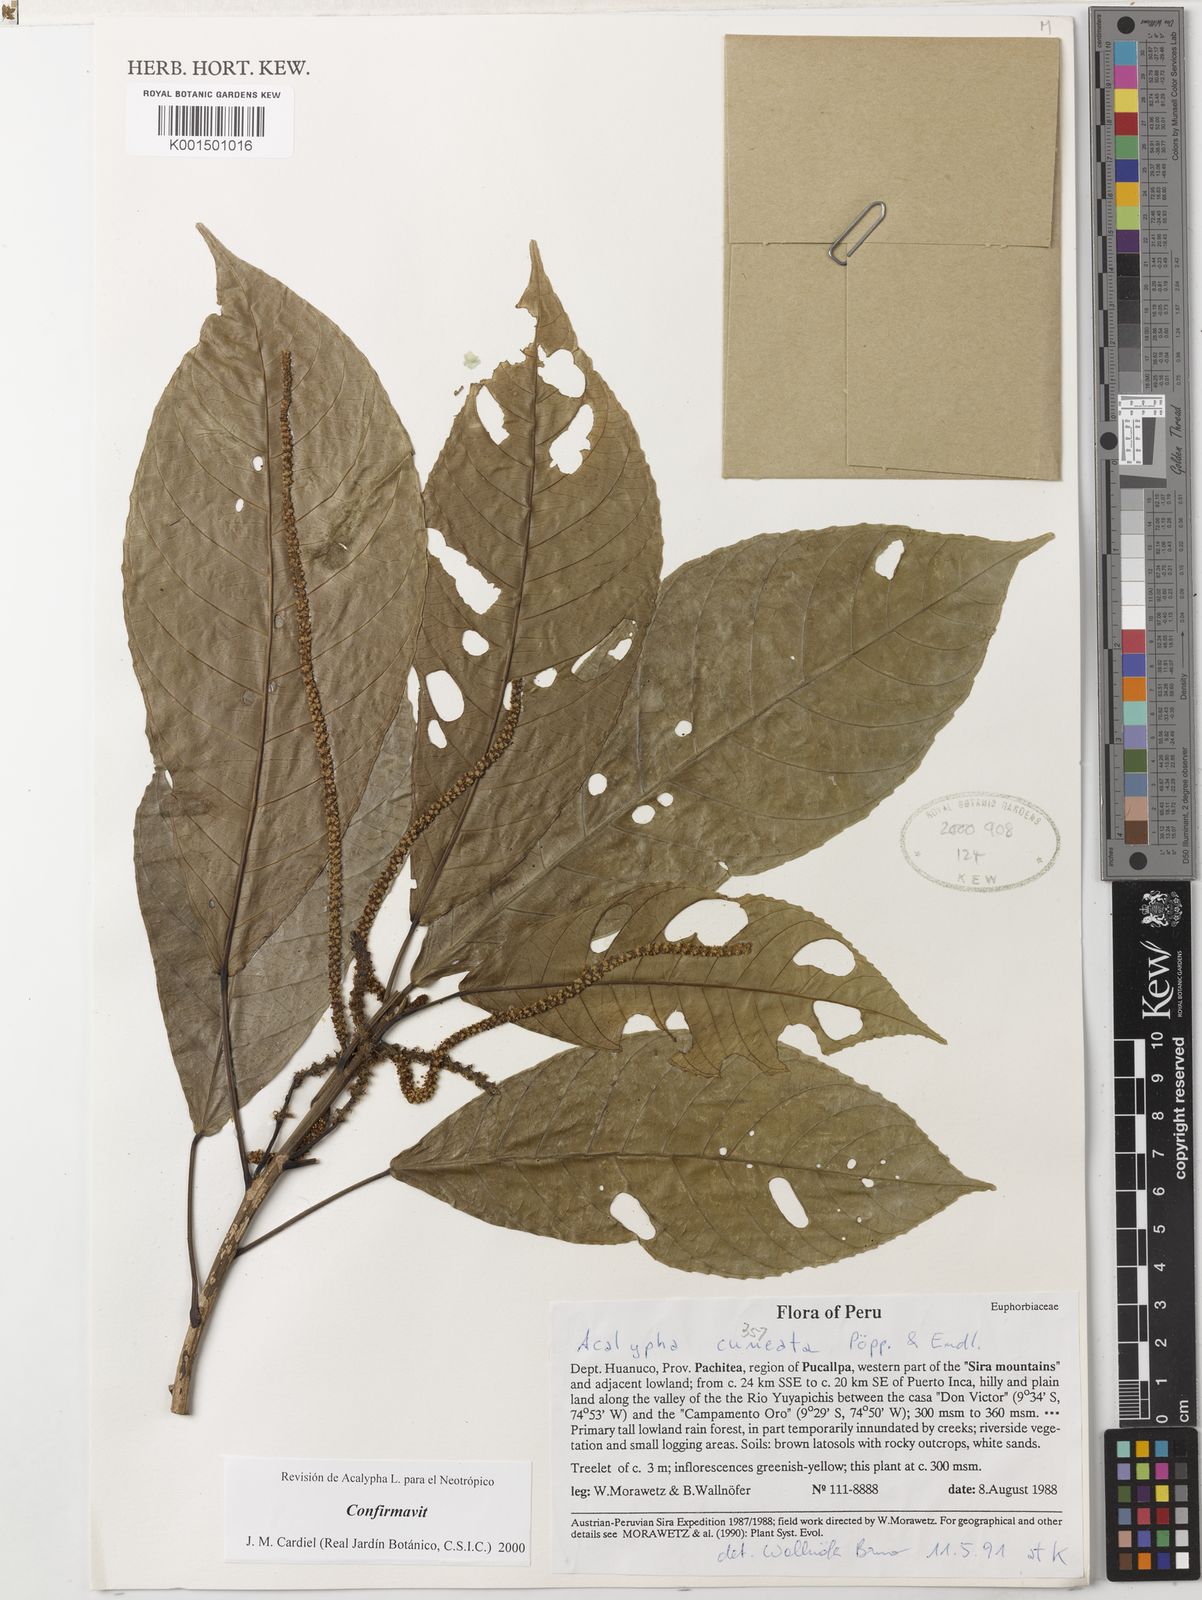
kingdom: Plantae
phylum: Tracheophyta
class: Magnoliopsida
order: Malpighiales
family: Euphorbiaceae
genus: Acalypha
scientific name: Acalypha cuneata
